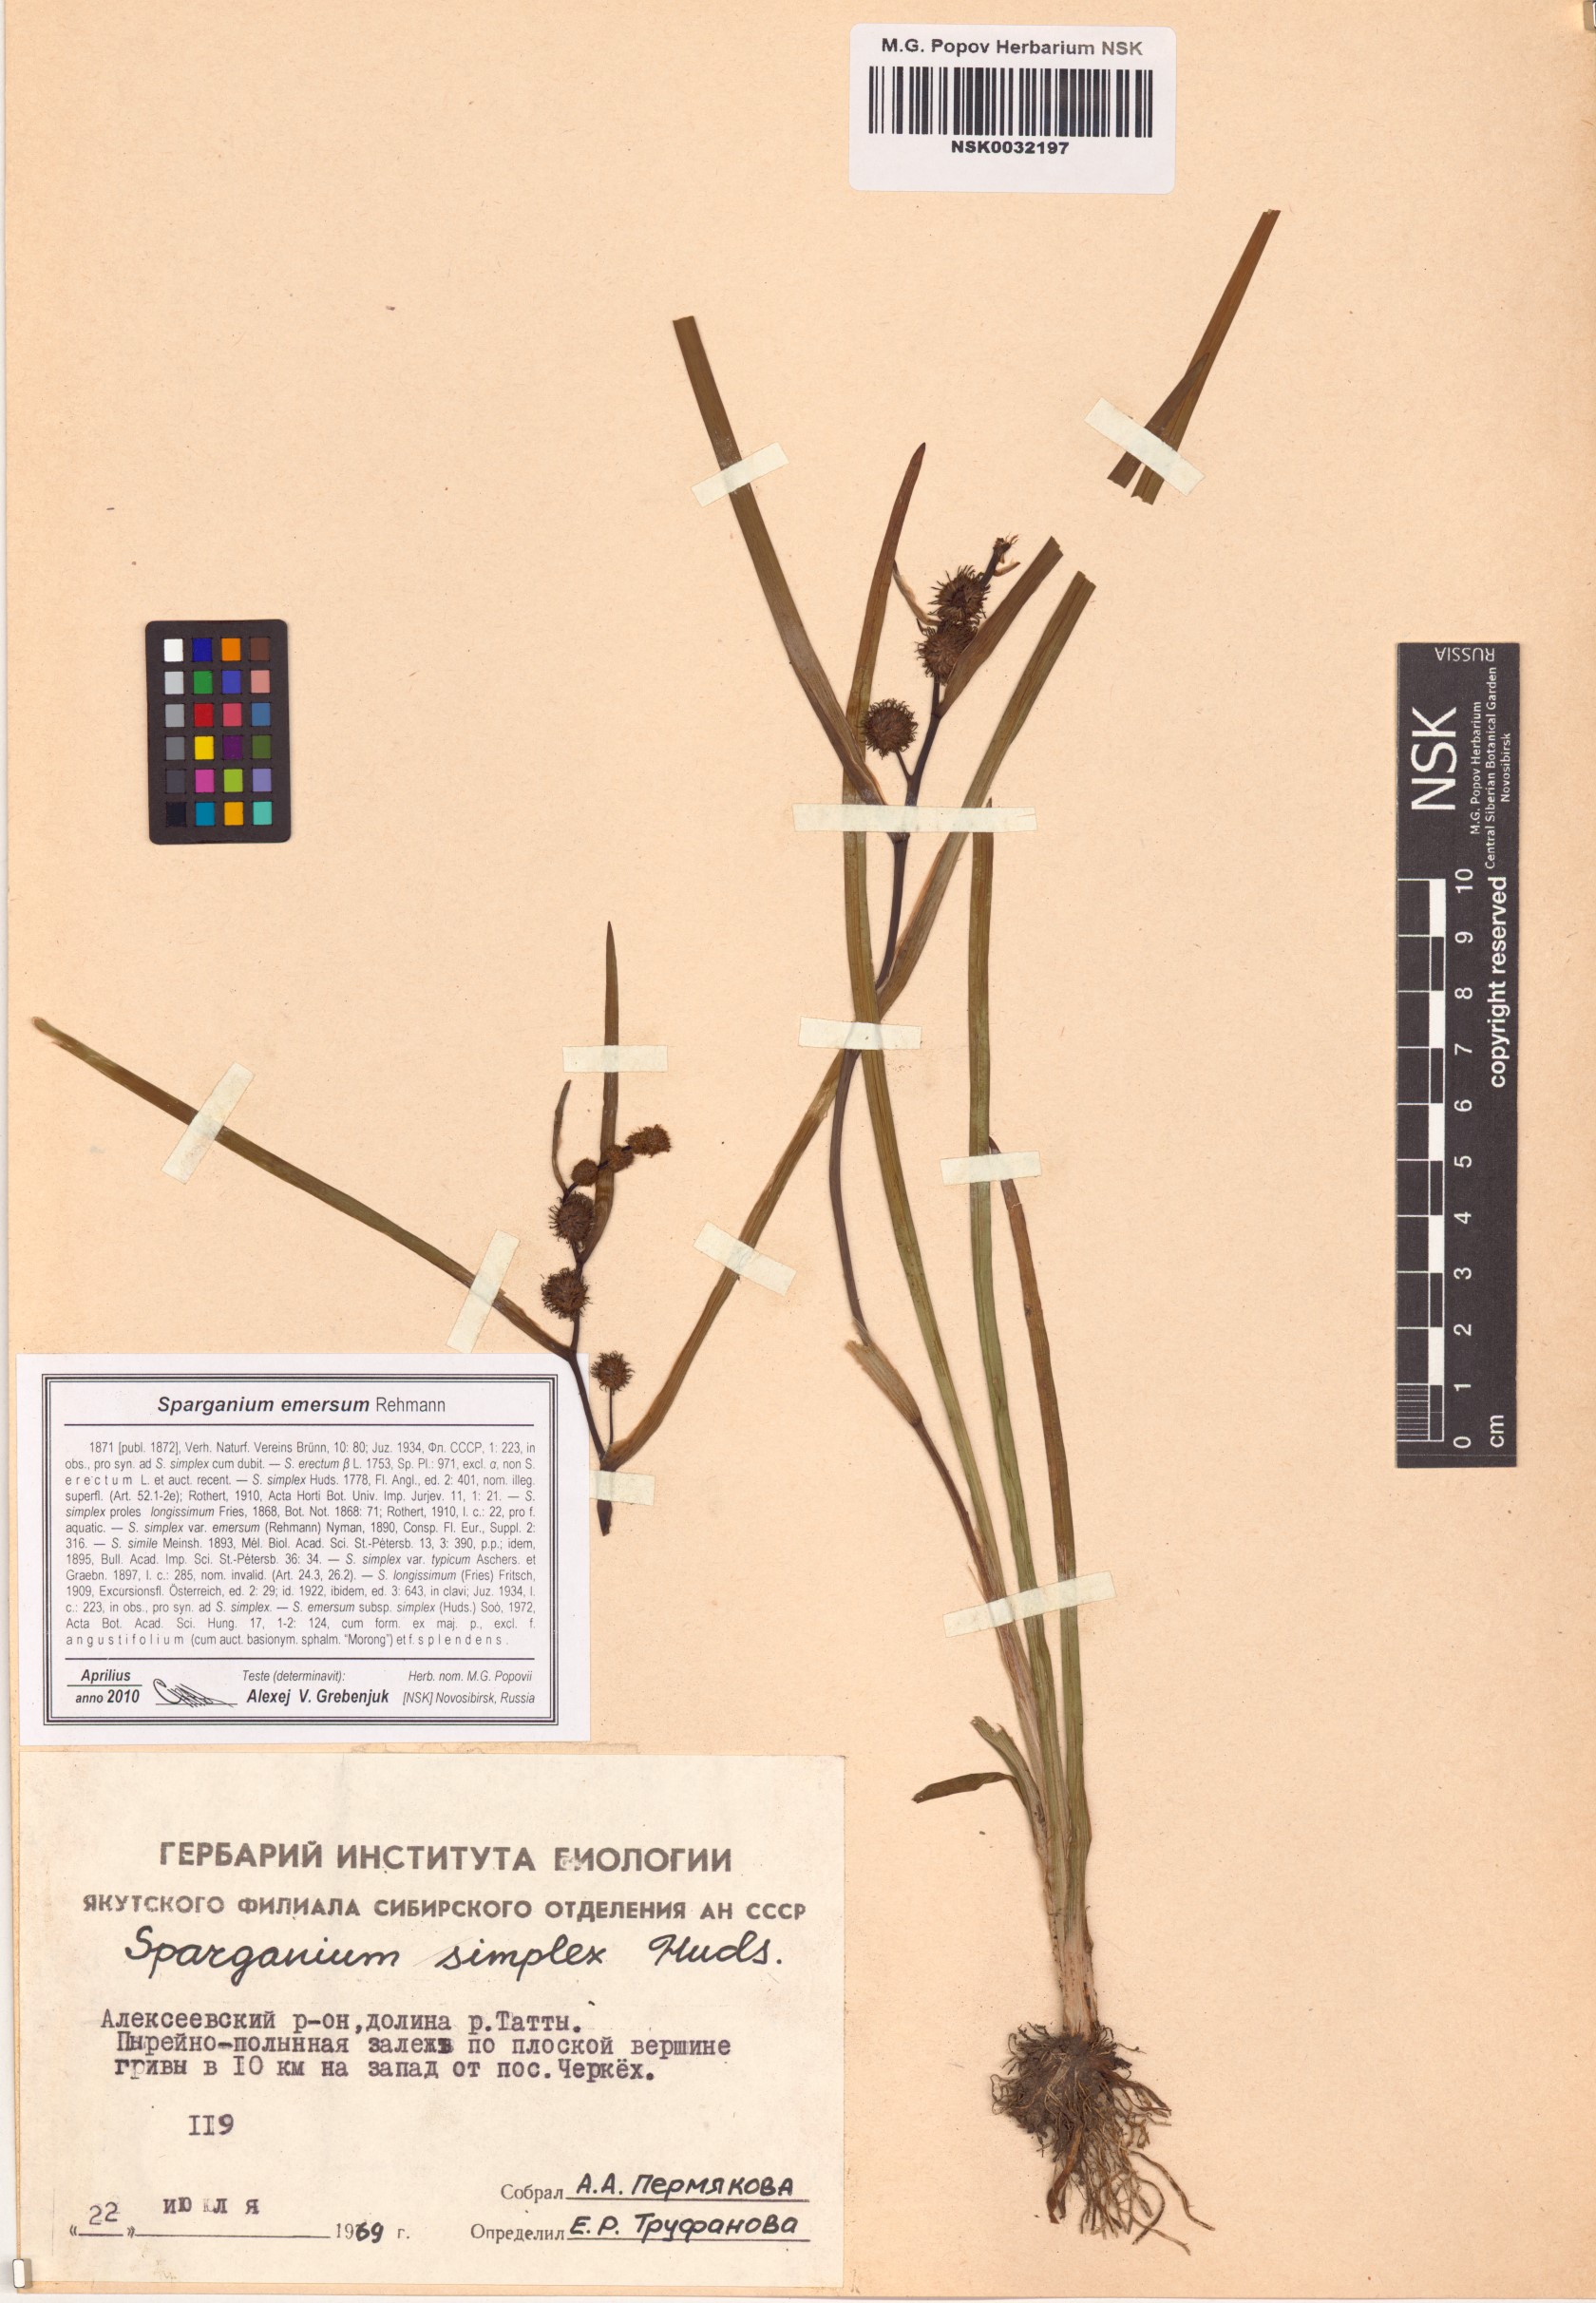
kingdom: Plantae
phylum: Tracheophyta
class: Liliopsida
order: Poales
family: Typhaceae
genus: Sparganium
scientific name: Sparganium emersum
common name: Unbranched bur-reed
